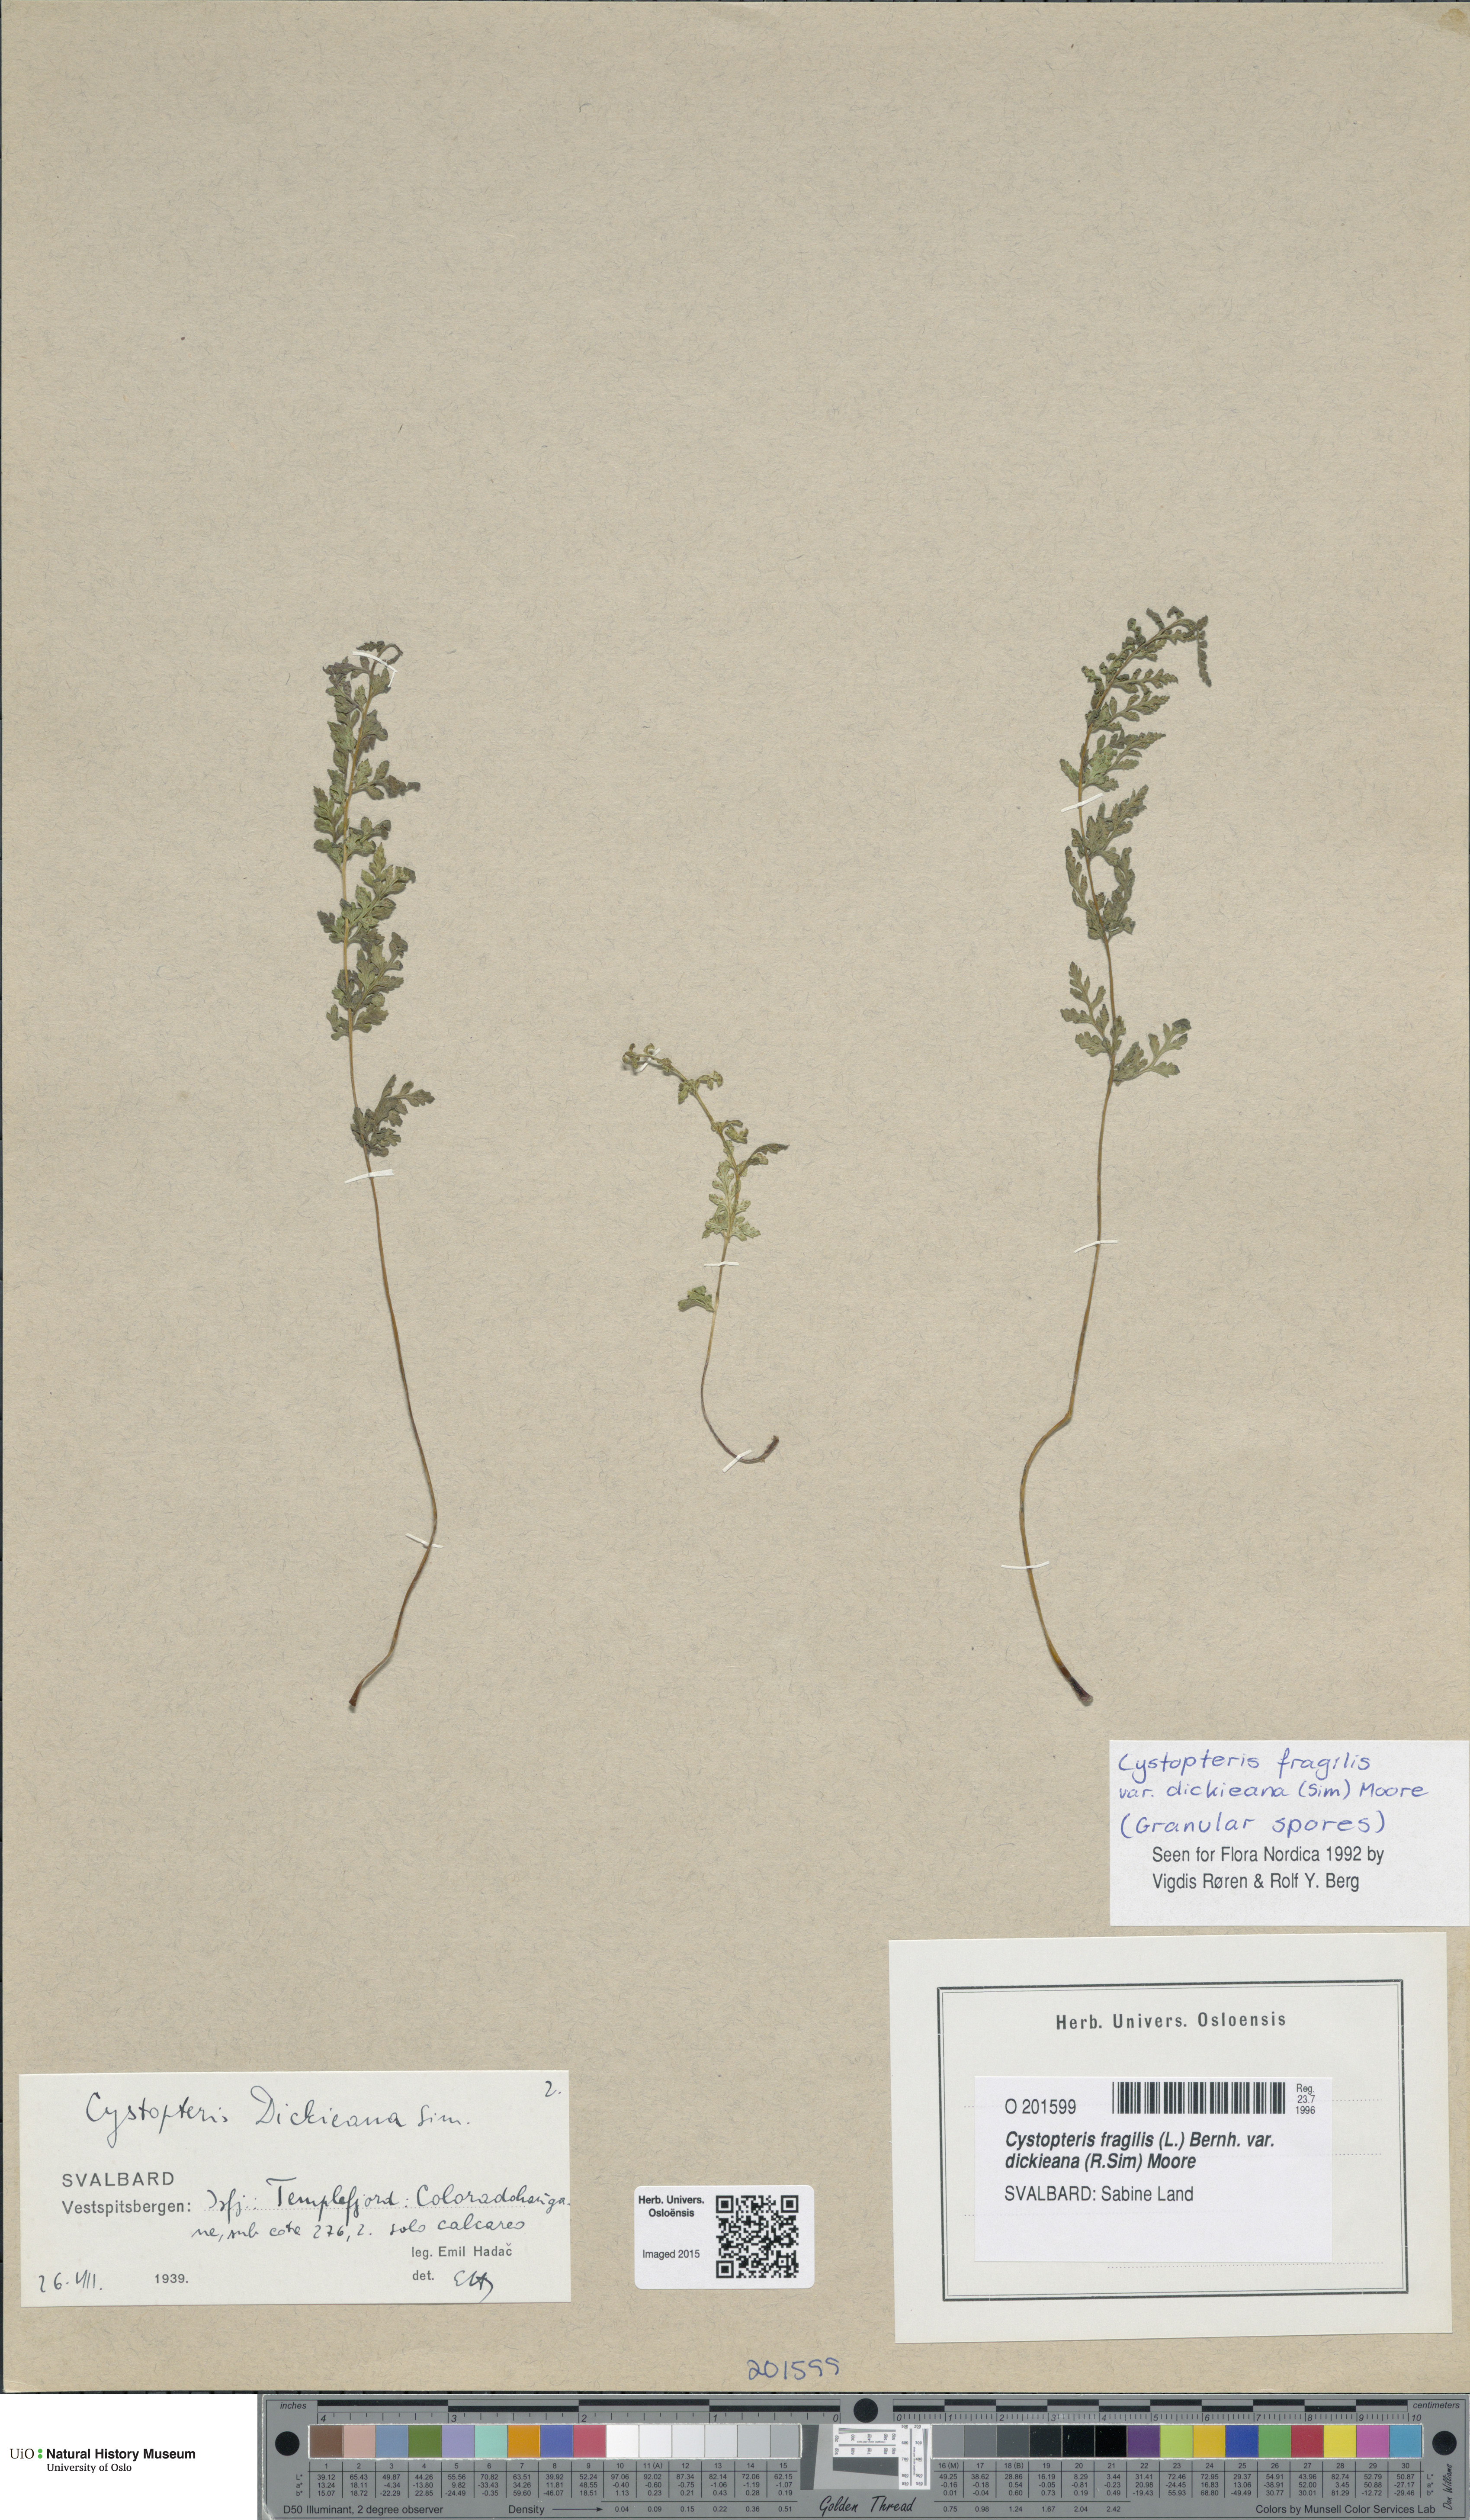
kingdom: Plantae
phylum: Tracheophyta
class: Polypodiopsida
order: Polypodiales
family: Cystopteridaceae
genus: Cystopteris
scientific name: Cystopteris dickieana
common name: Dickie's bladder-fern
